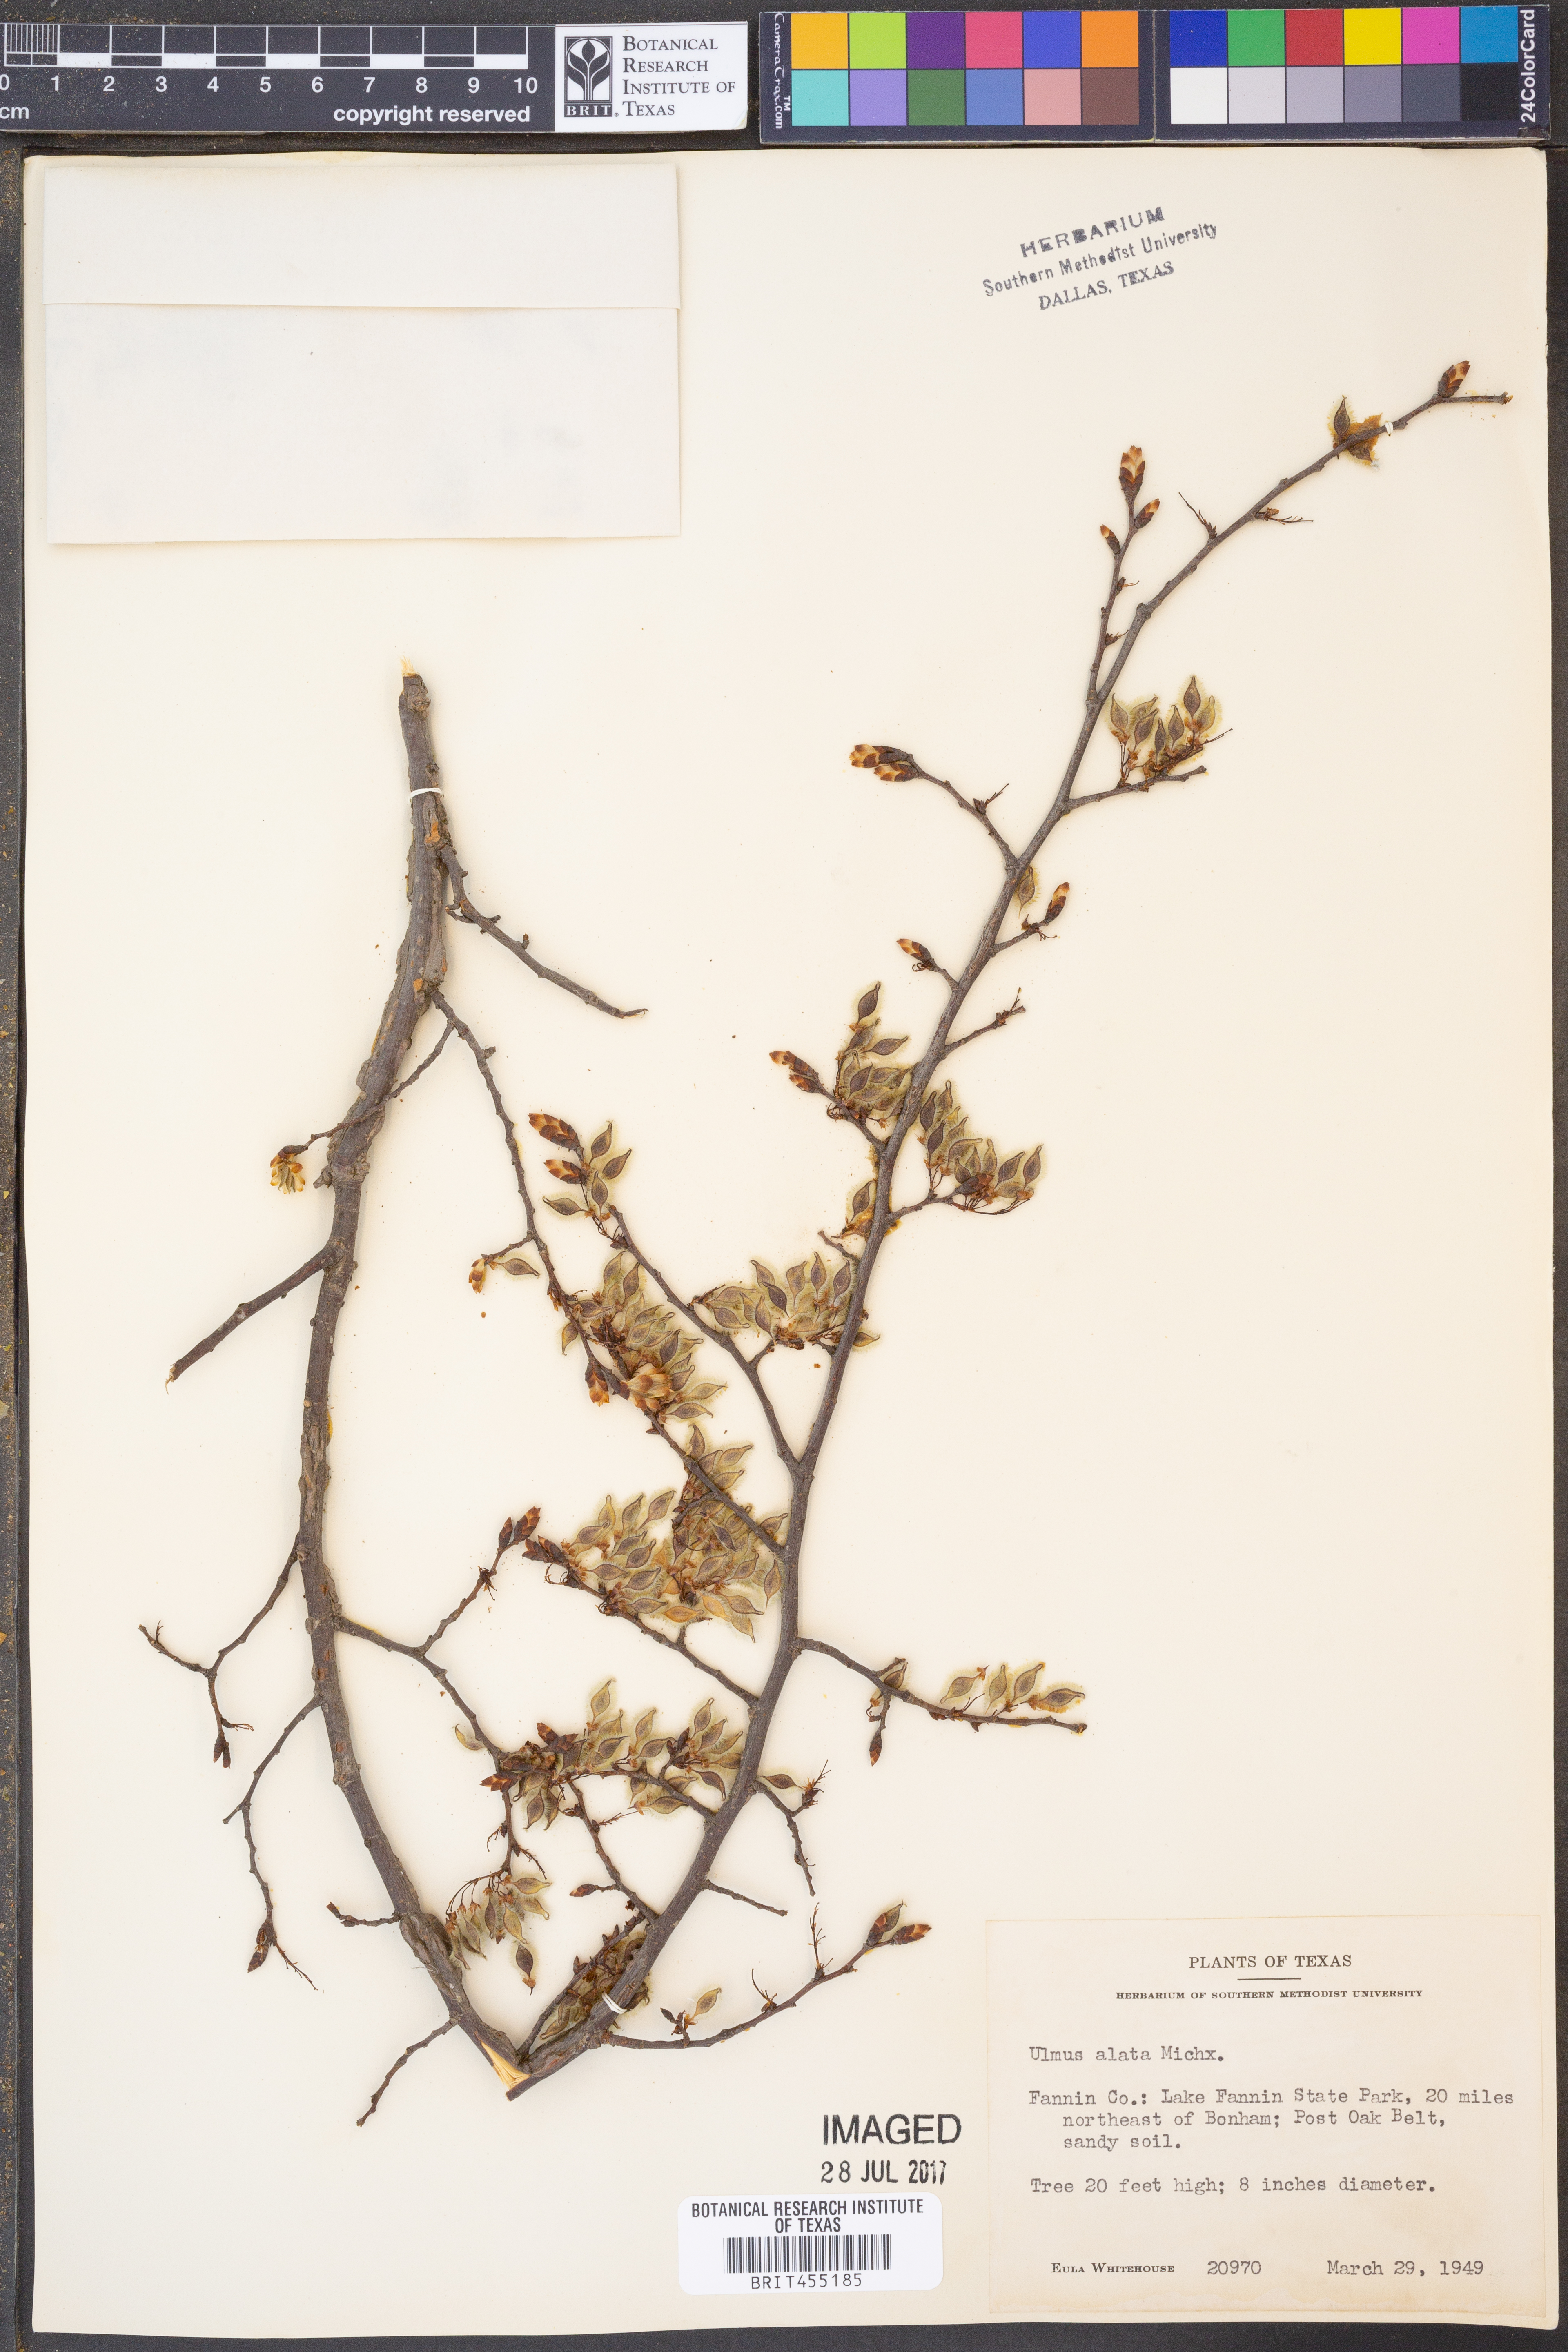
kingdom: Plantae
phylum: Tracheophyta
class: Magnoliopsida
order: Rosales
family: Ulmaceae
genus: Ulmus
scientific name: Ulmus alata
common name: Winged elm
